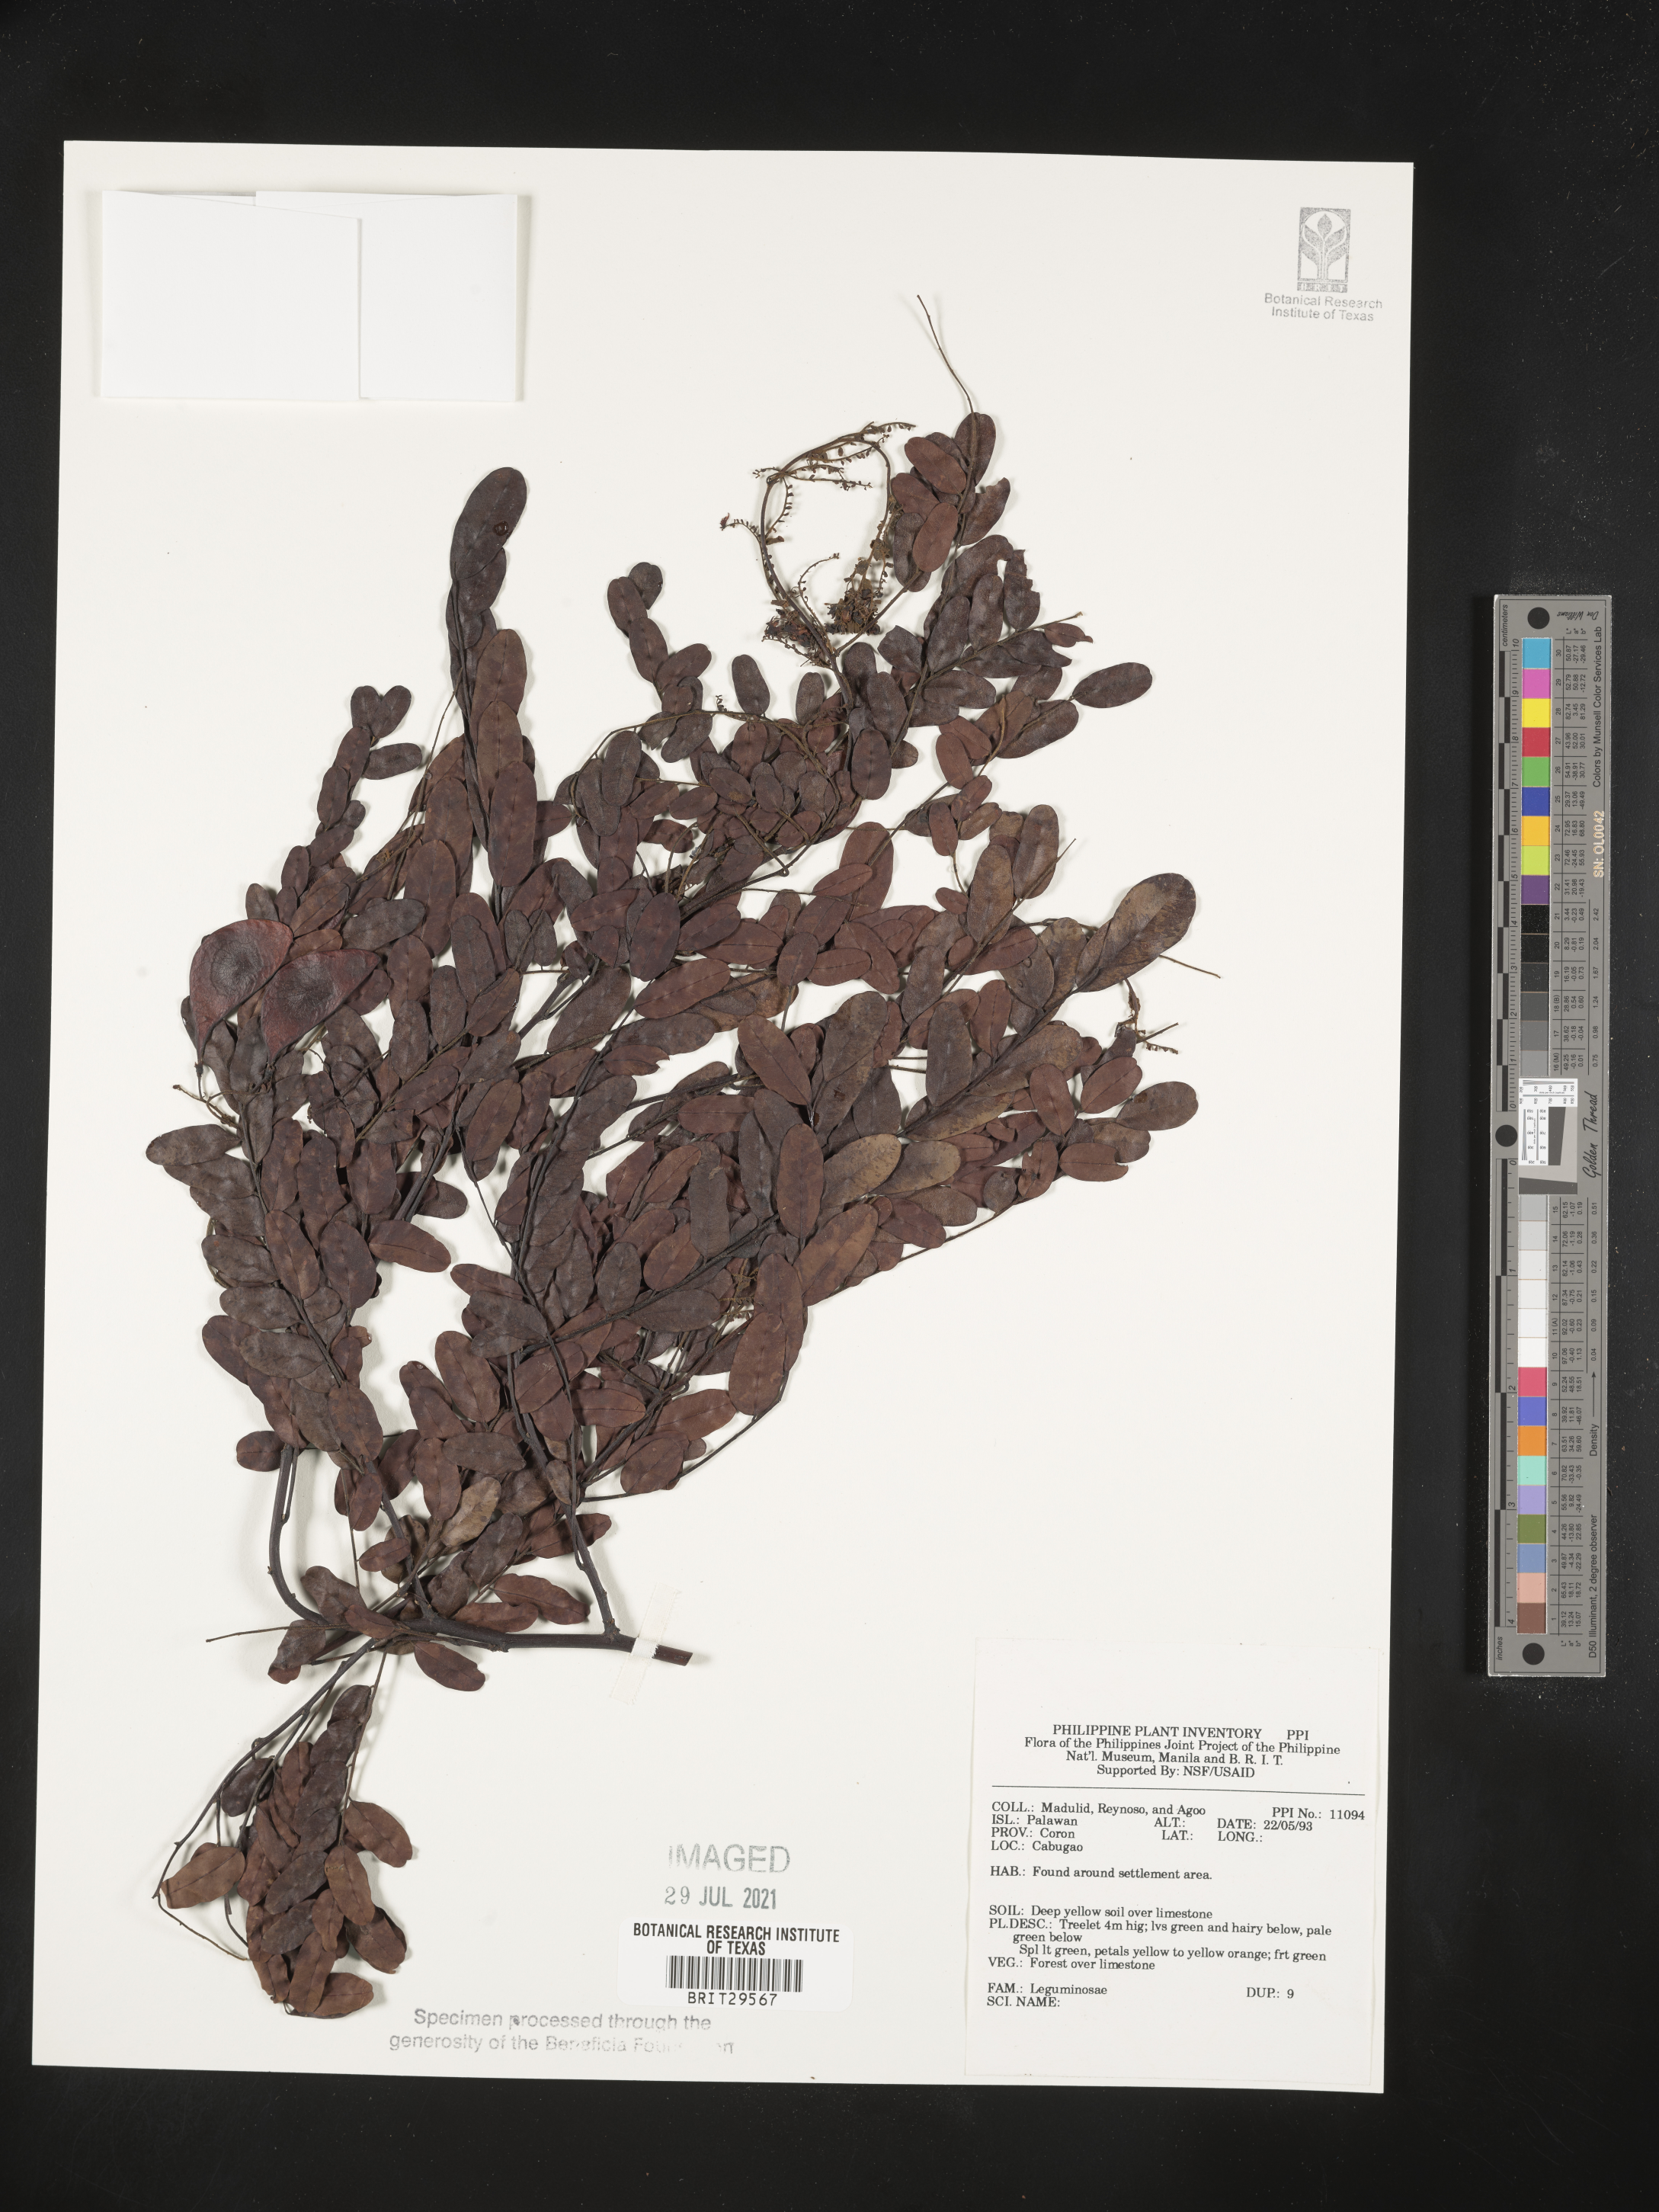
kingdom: Plantae
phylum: Tracheophyta
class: Magnoliopsida
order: Fabales
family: Fabaceae
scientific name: Fabaceae
